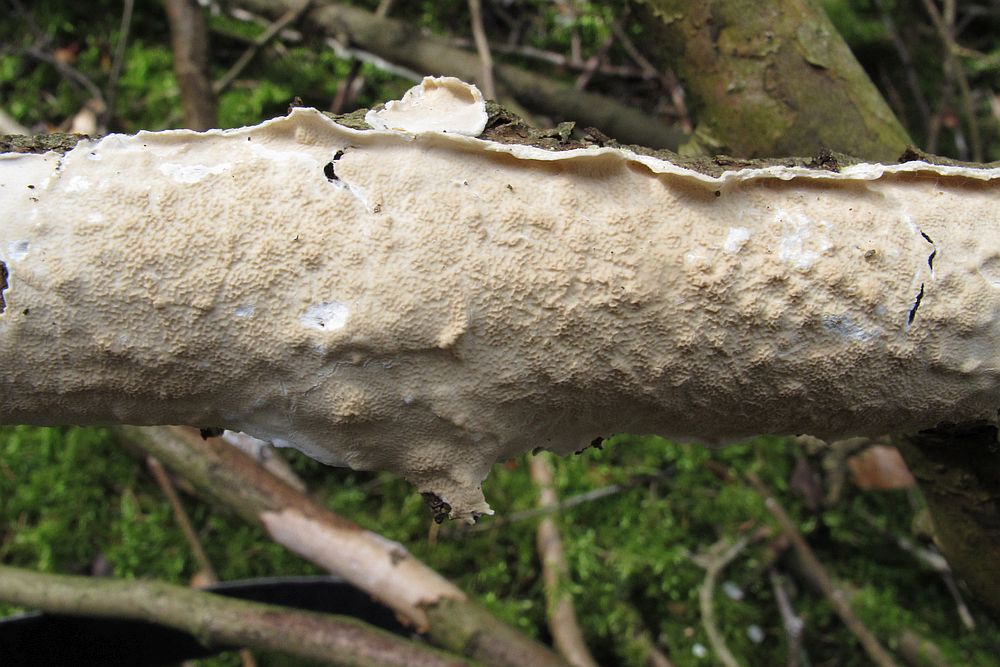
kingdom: Fungi
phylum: Basidiomycota
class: Agaricomycetes
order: Polyporales
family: Irpicaceae
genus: Byssomerulius
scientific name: Byssomerulius corium
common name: læder-åresvamp
